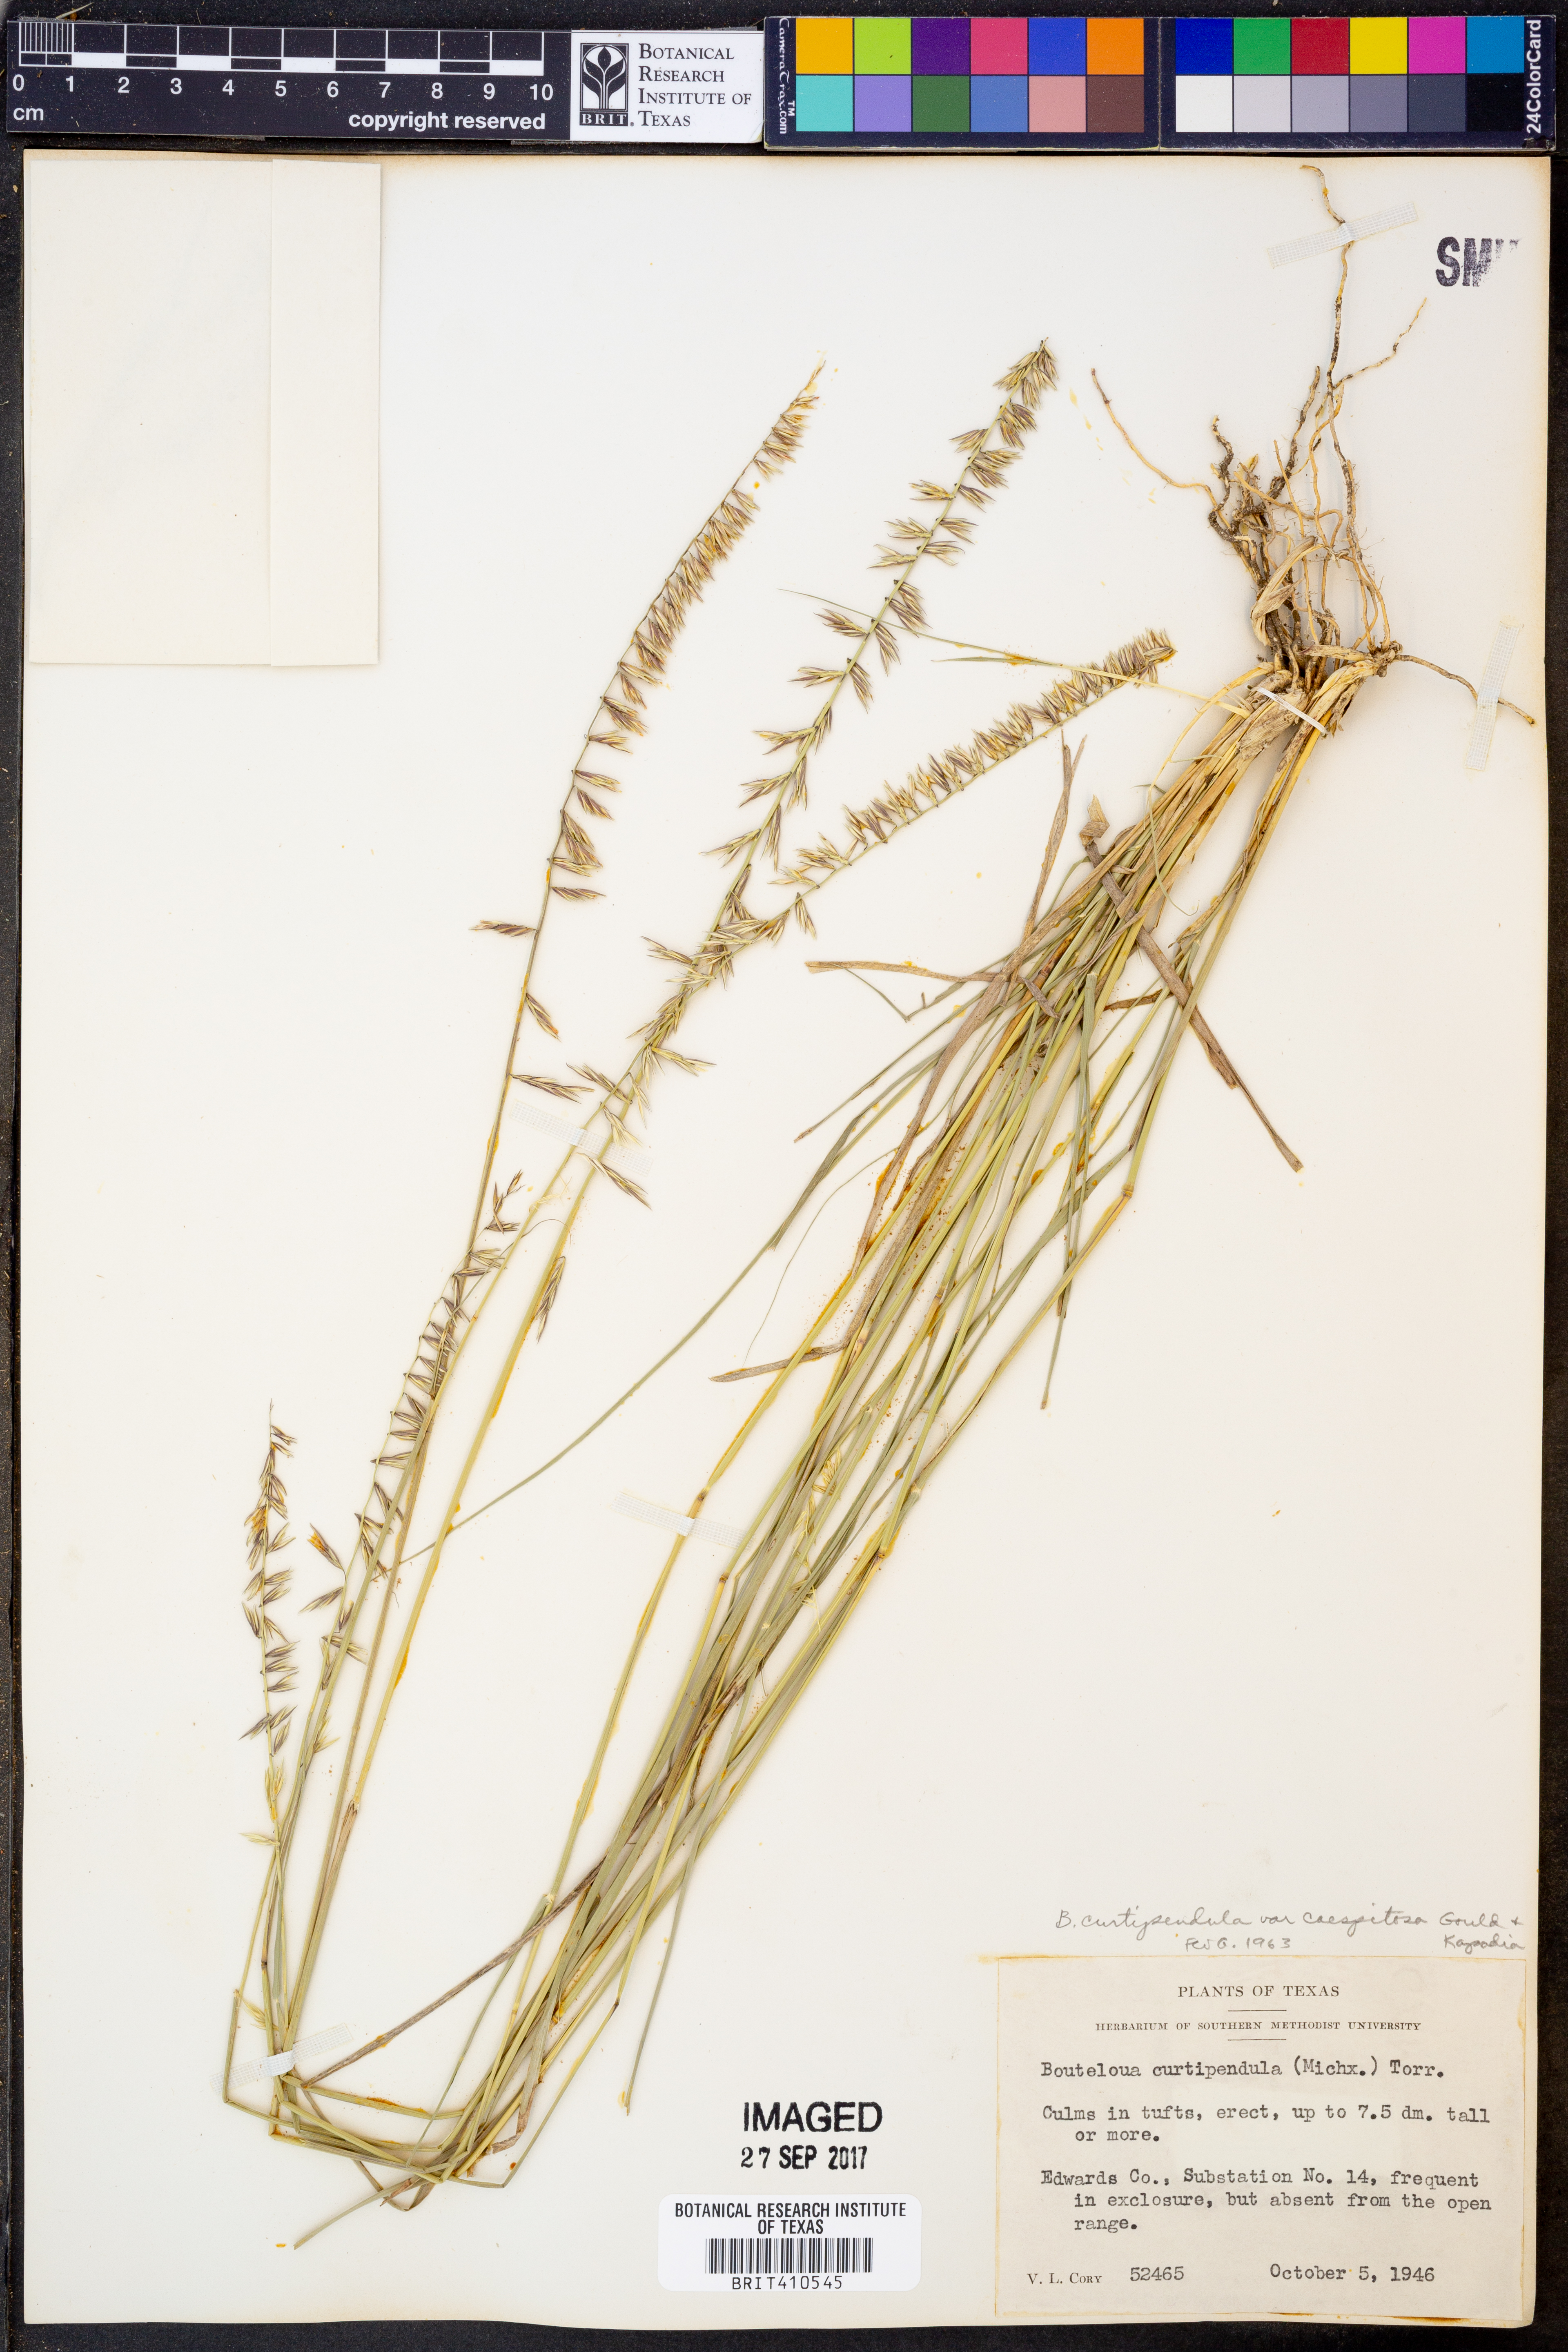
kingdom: Plantae
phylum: Tracheophyta
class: Liliopsida
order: Poales
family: Poaceae
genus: Bouteloua
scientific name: Bouteloua curtipendula
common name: Side-oats grama
